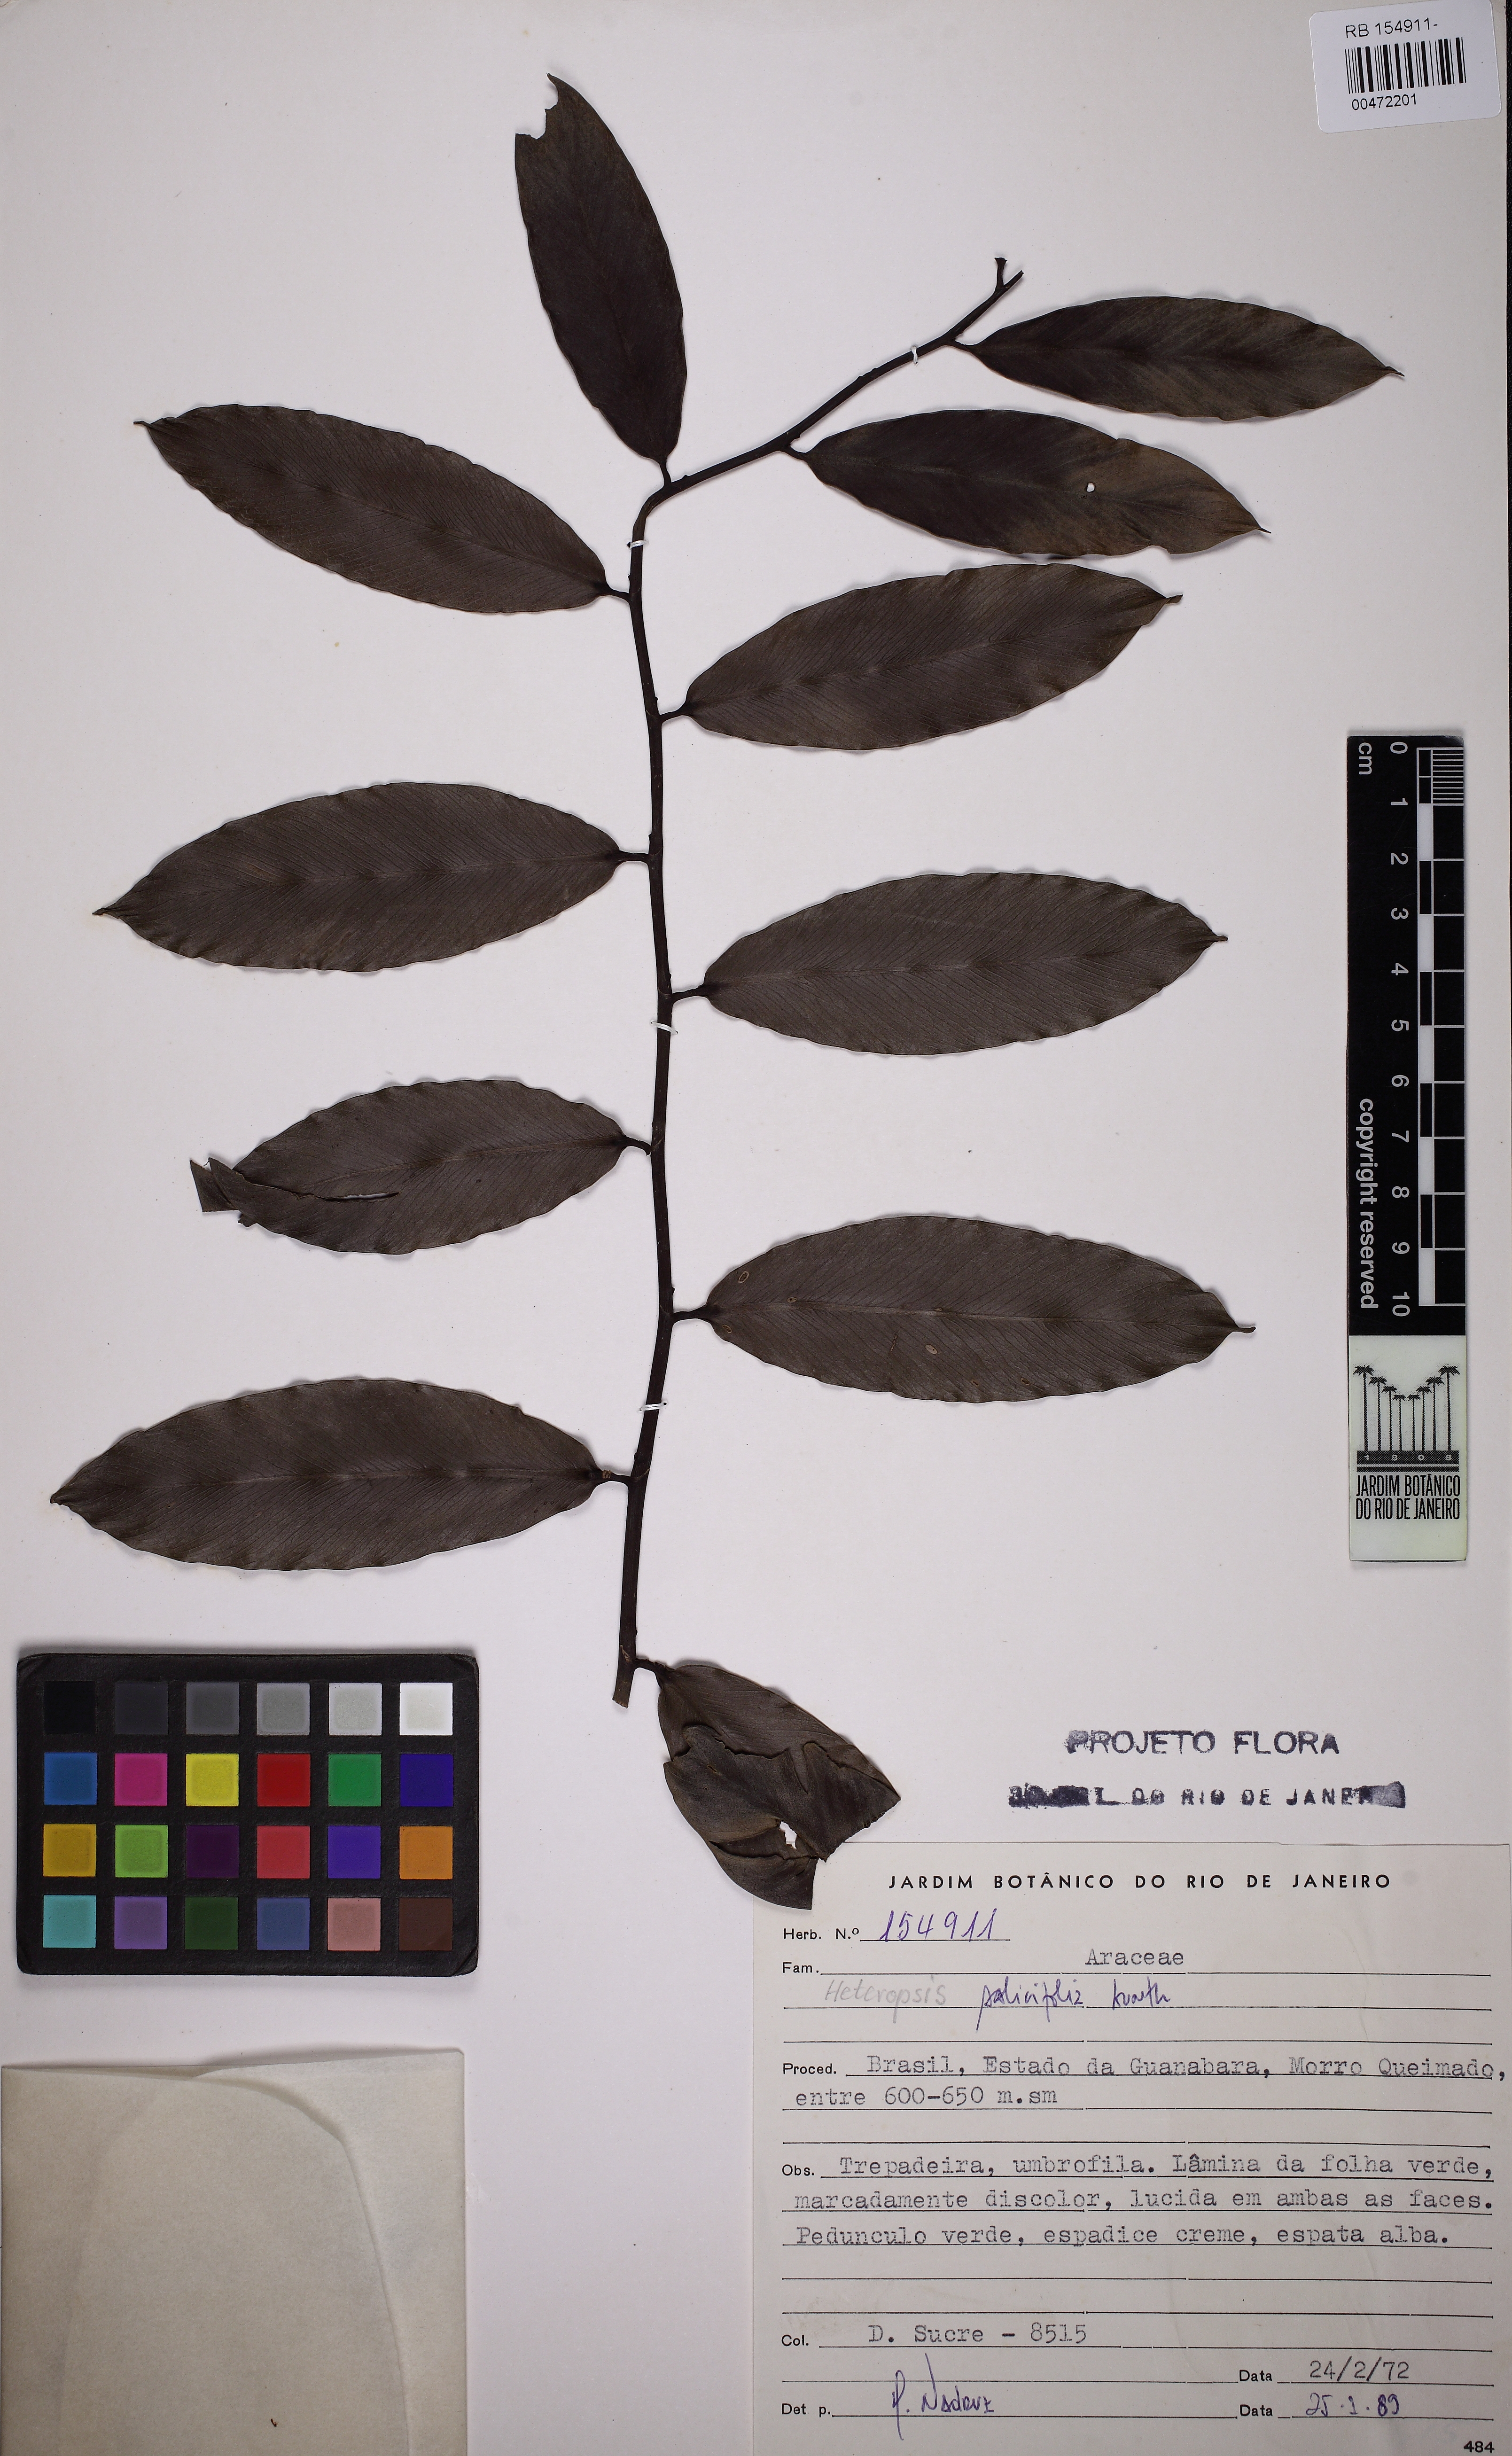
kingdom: Plantae
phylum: Tracheophyta
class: Liliopsida
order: Alismatales
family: Araceae
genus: Heteropsis
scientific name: Heteropsis salicifolia
